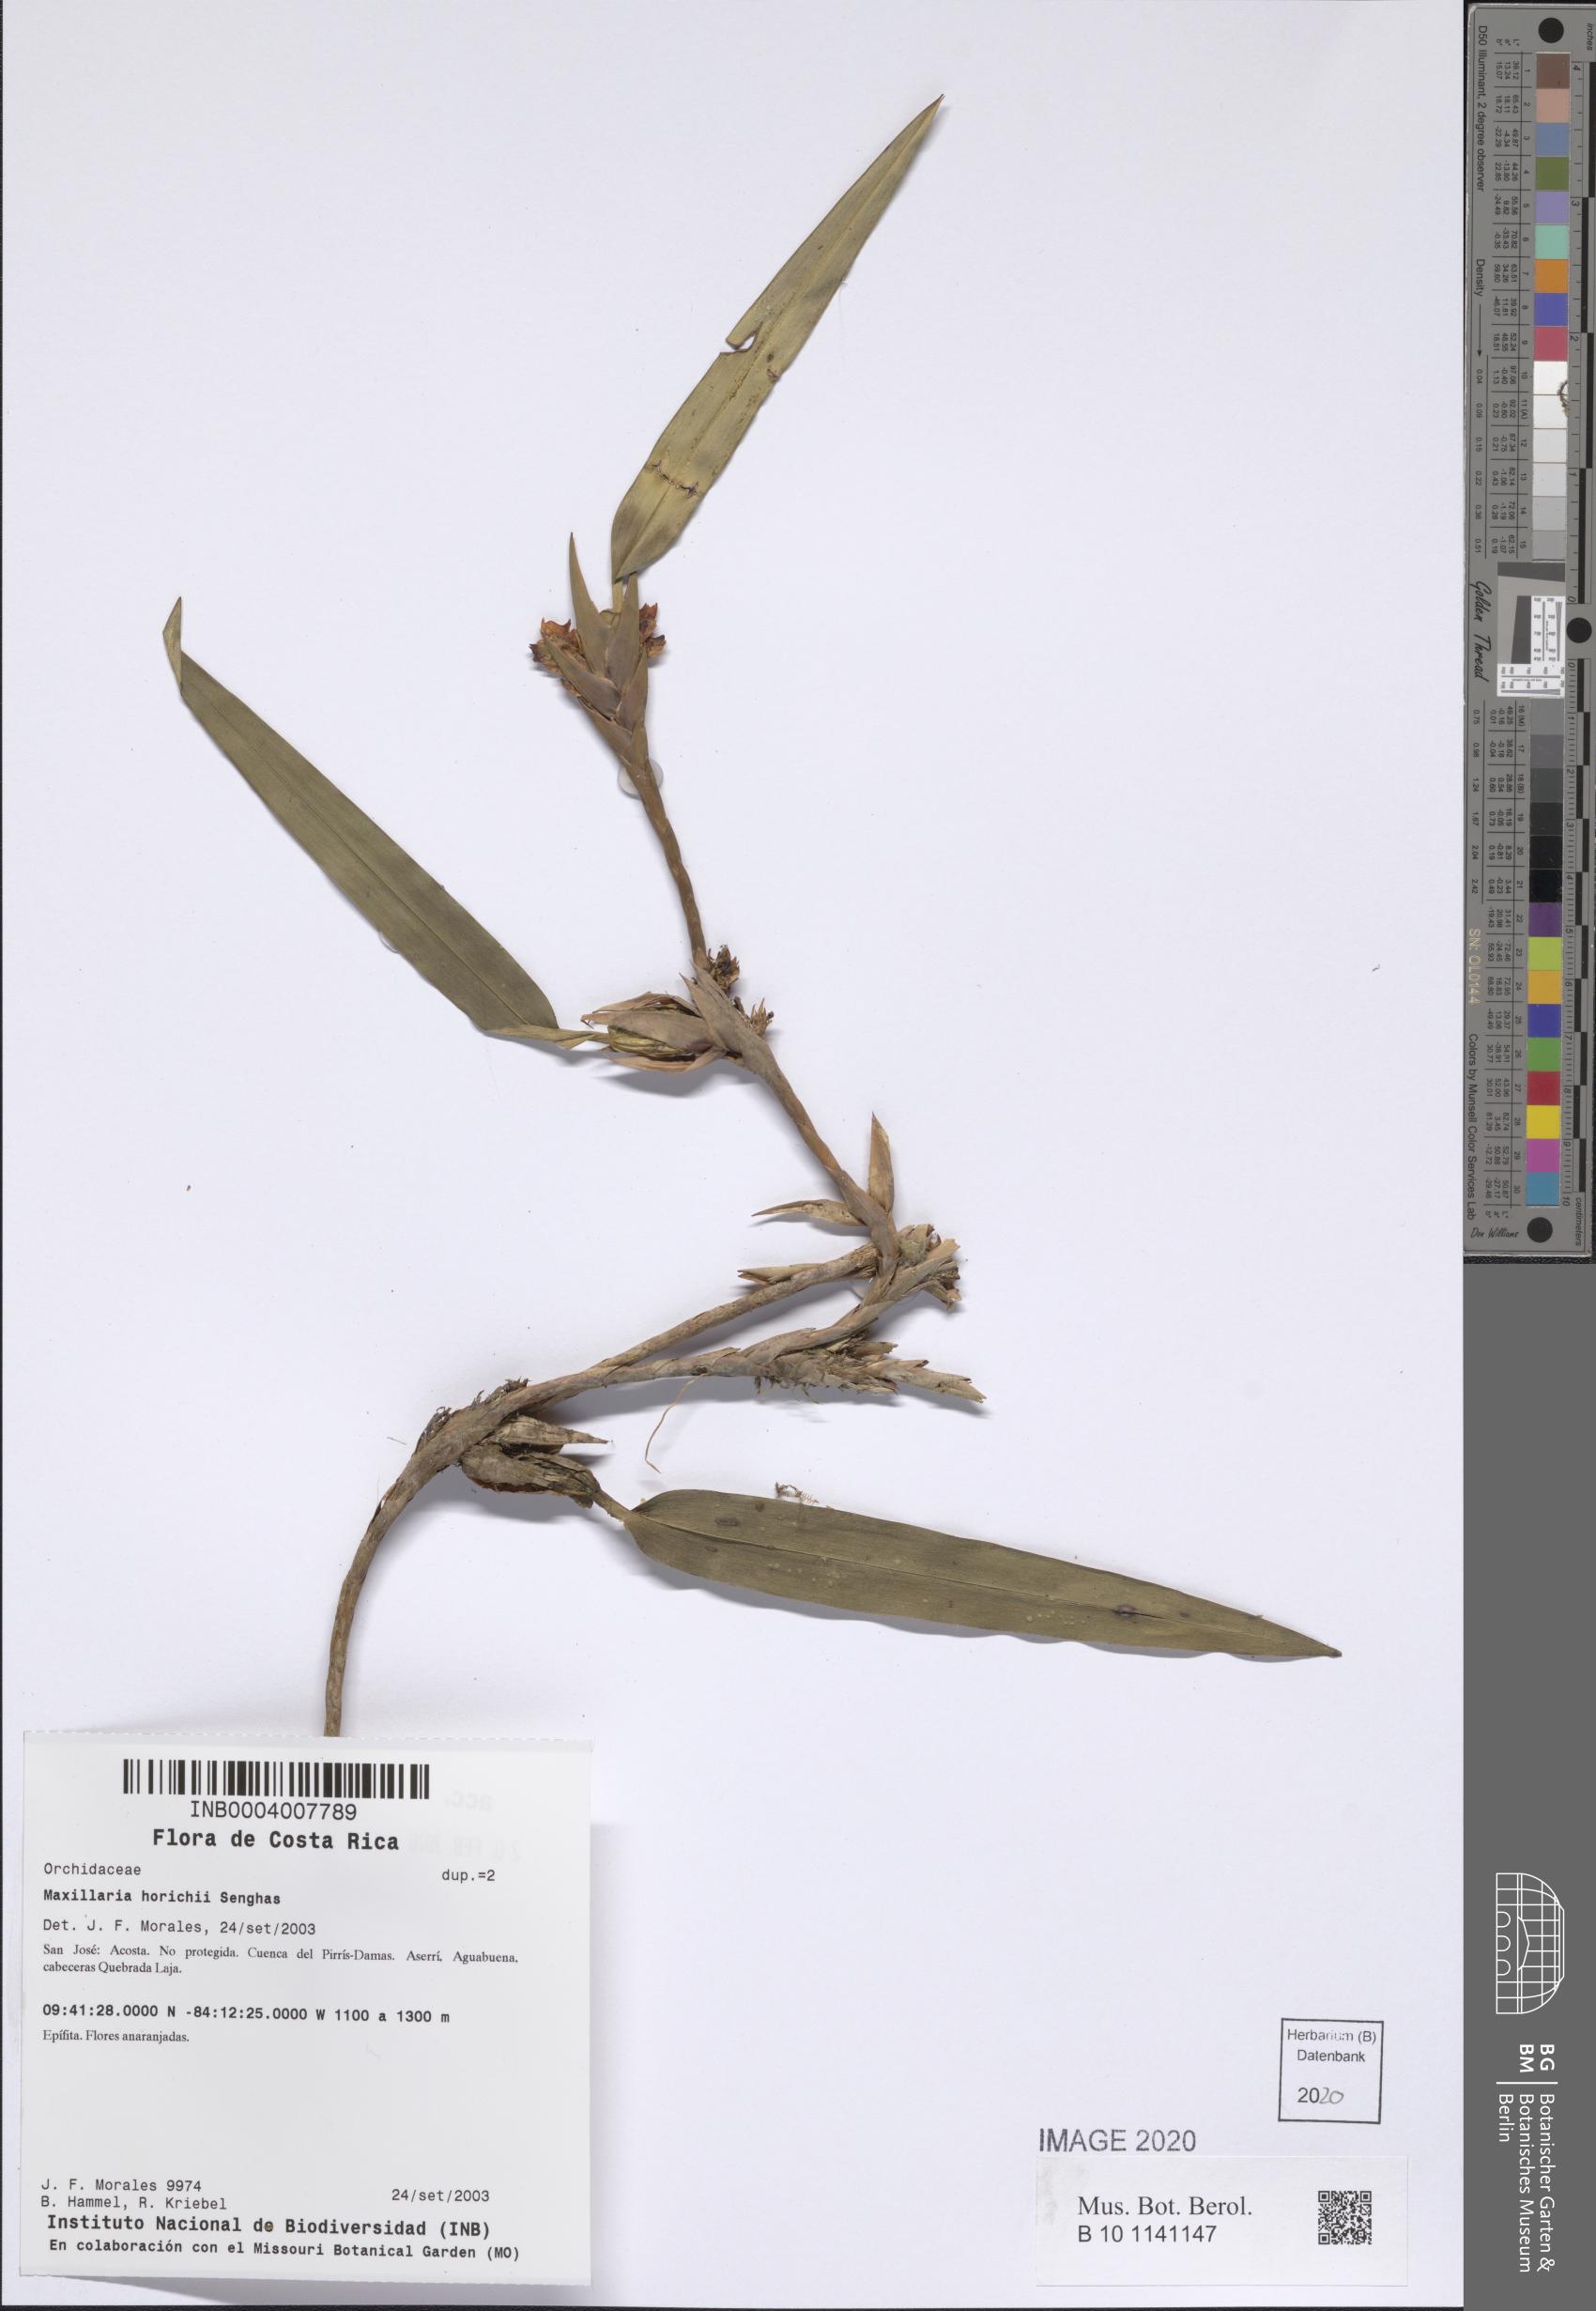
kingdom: Plantae
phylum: Tracheophyta
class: Liliopsida
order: Asparagales
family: Orchidaceae
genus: Maxillaria
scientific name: Maxillaria horichii
